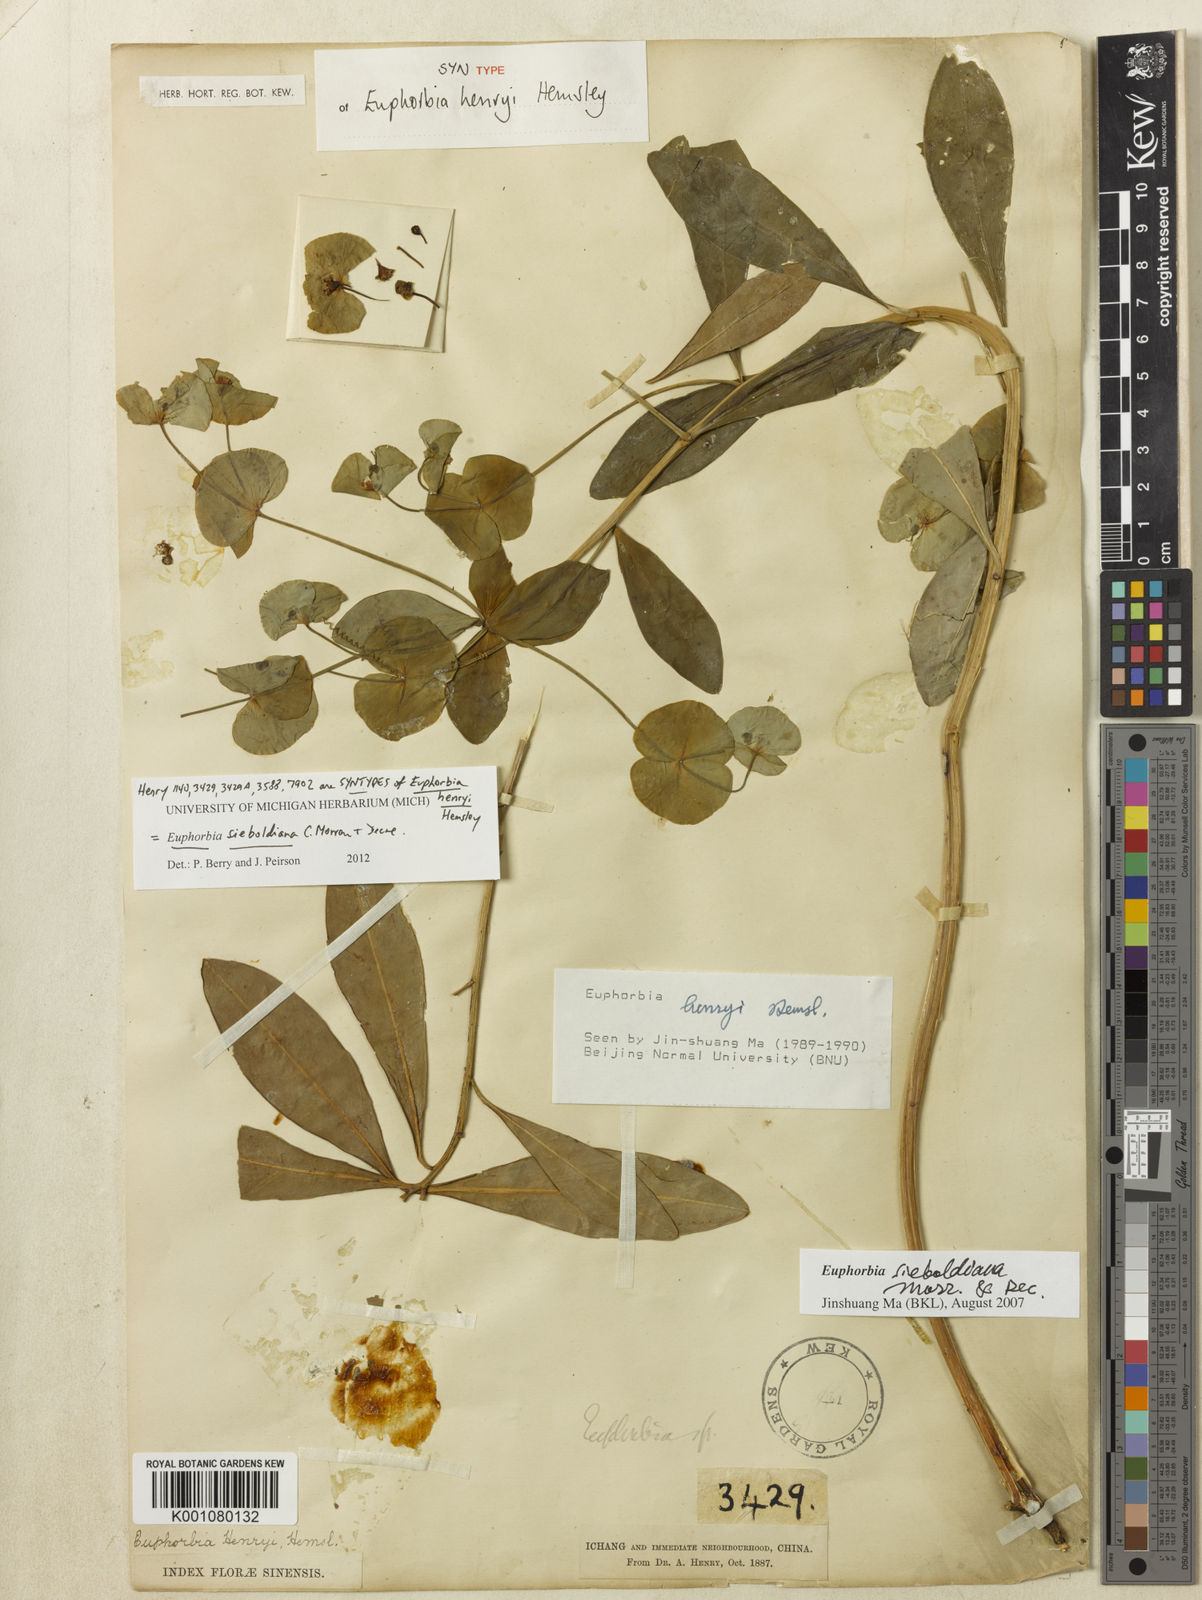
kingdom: Plantae
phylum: Tracheophyta
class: Magnoliopsida
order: Malpighiales
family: Euphorbiaceae
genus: Euphorbia
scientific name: Euphorbia sieboldiana
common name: Siebold's spurge
